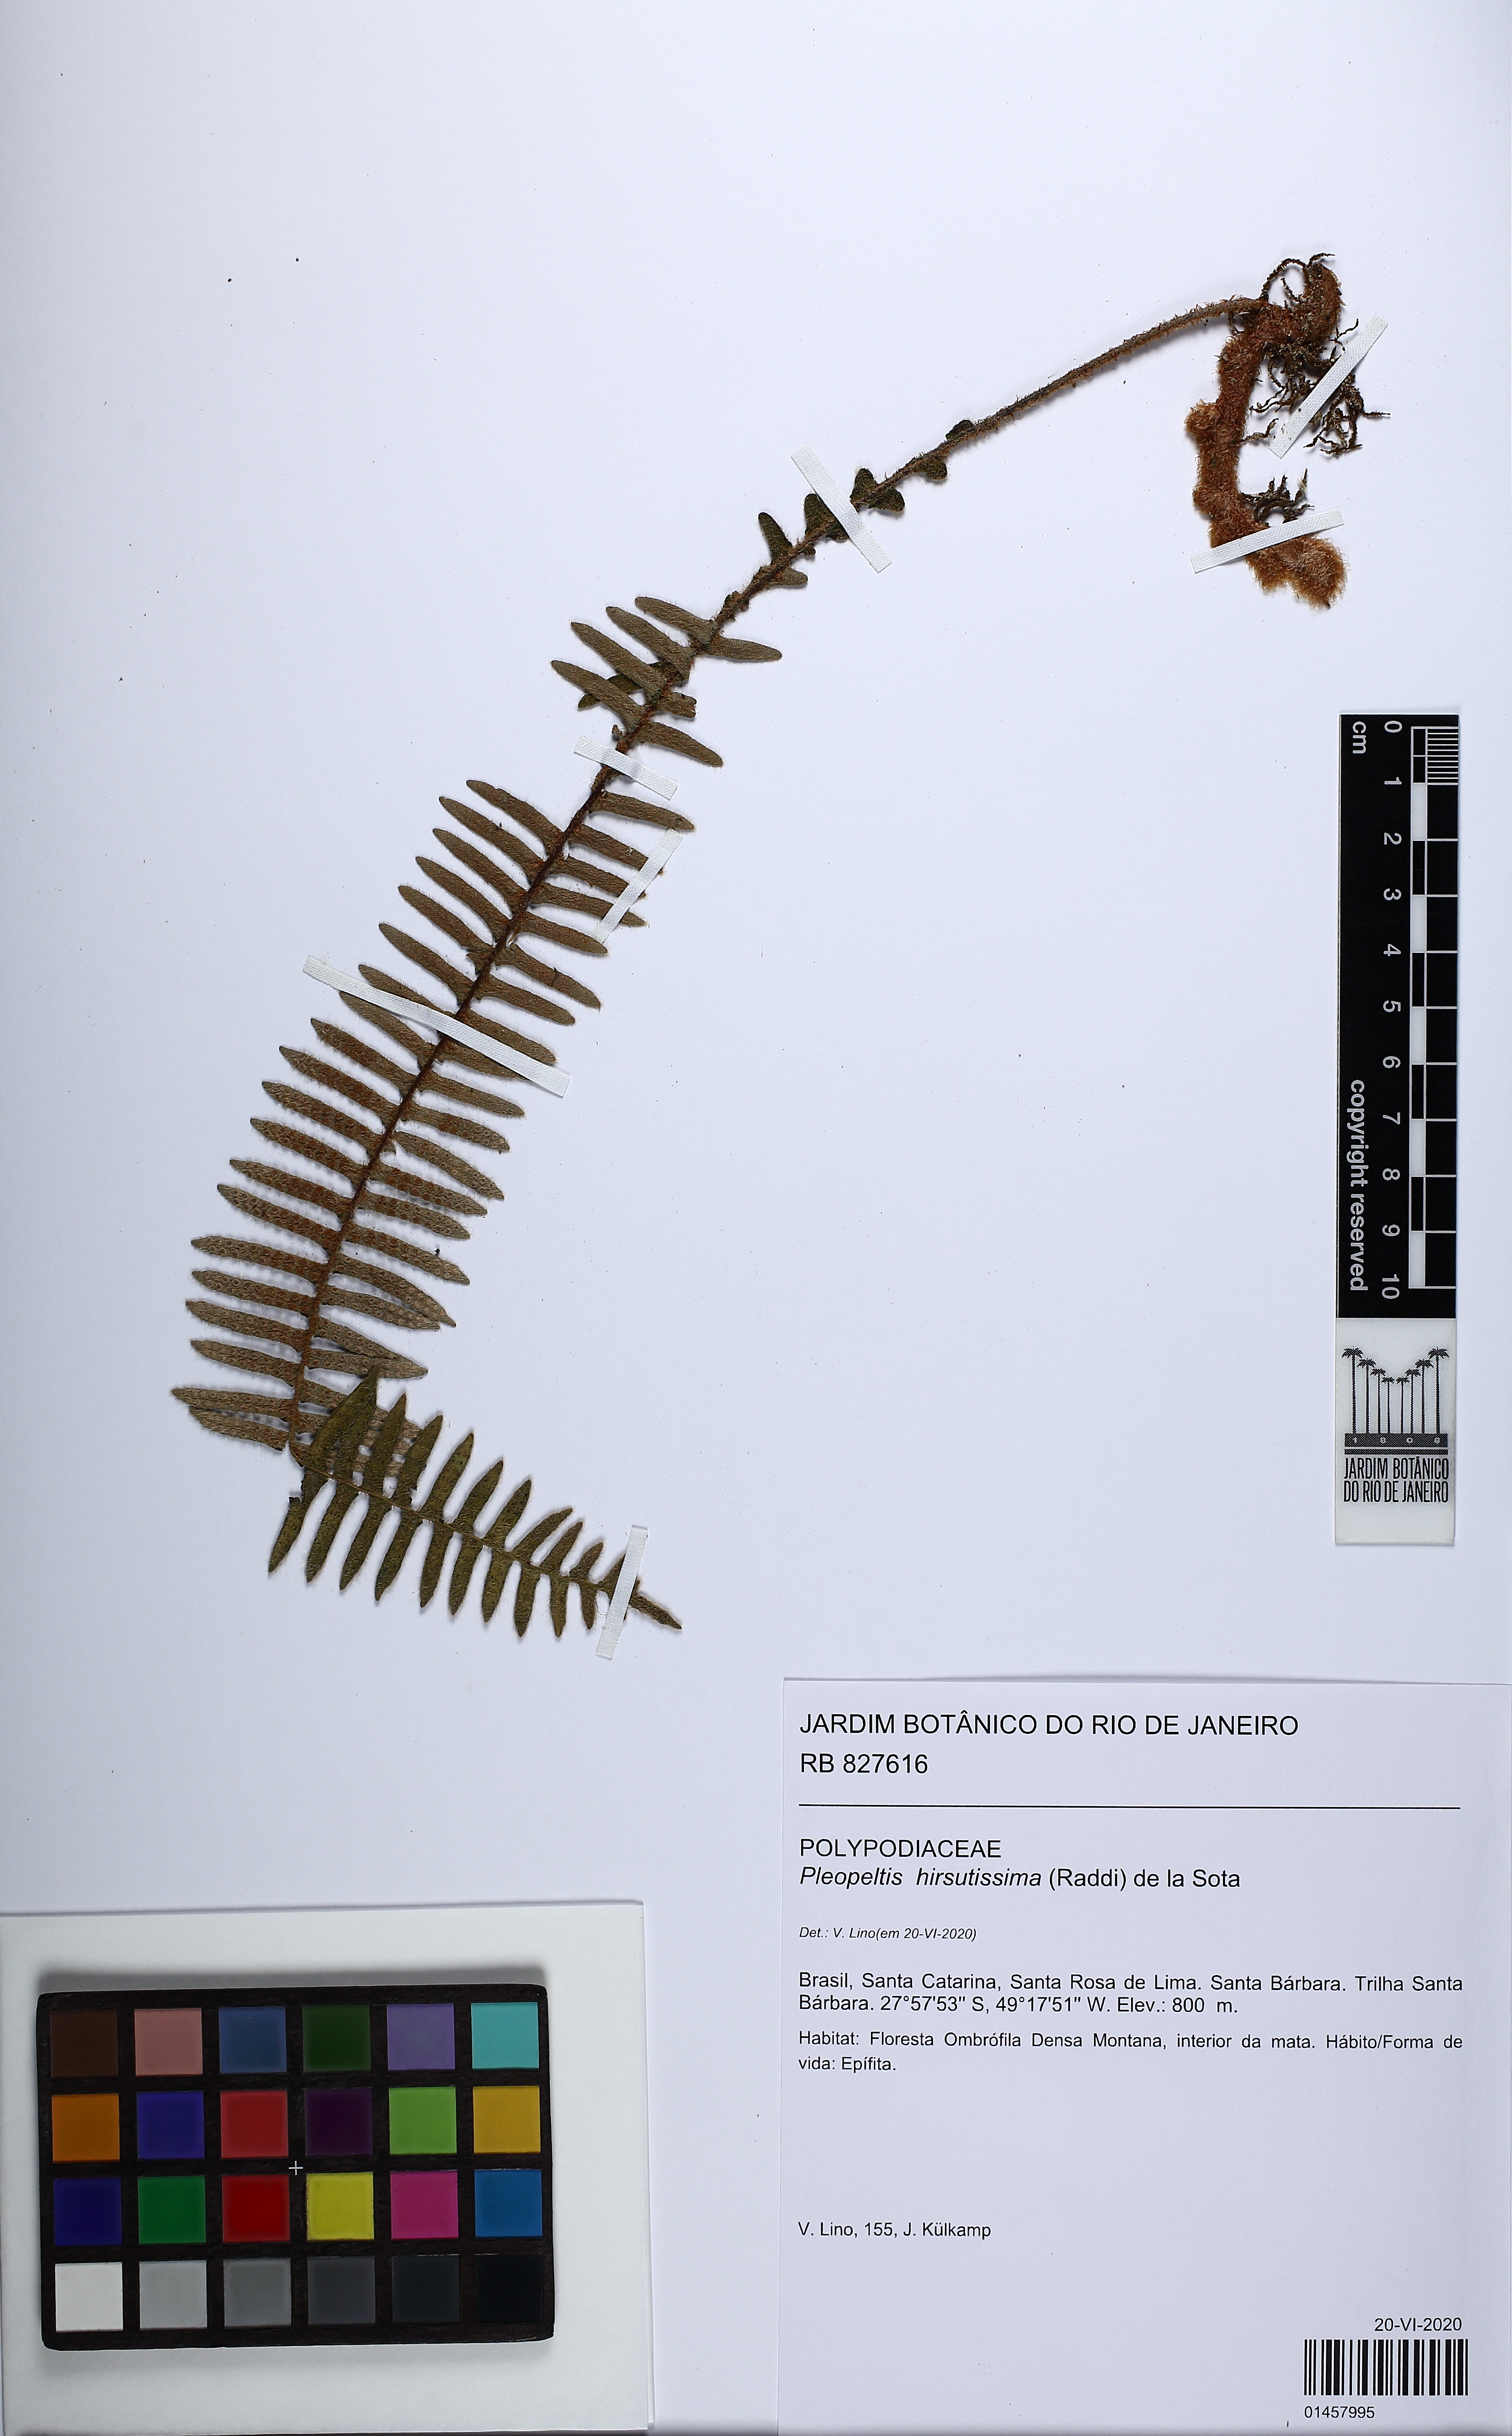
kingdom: Plantae
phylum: Tracheophyta
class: Polypodiopsida
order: Polypodiales
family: Polypodiaceae
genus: Pleopeltis
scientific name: Pleopeltis hirsutissima
